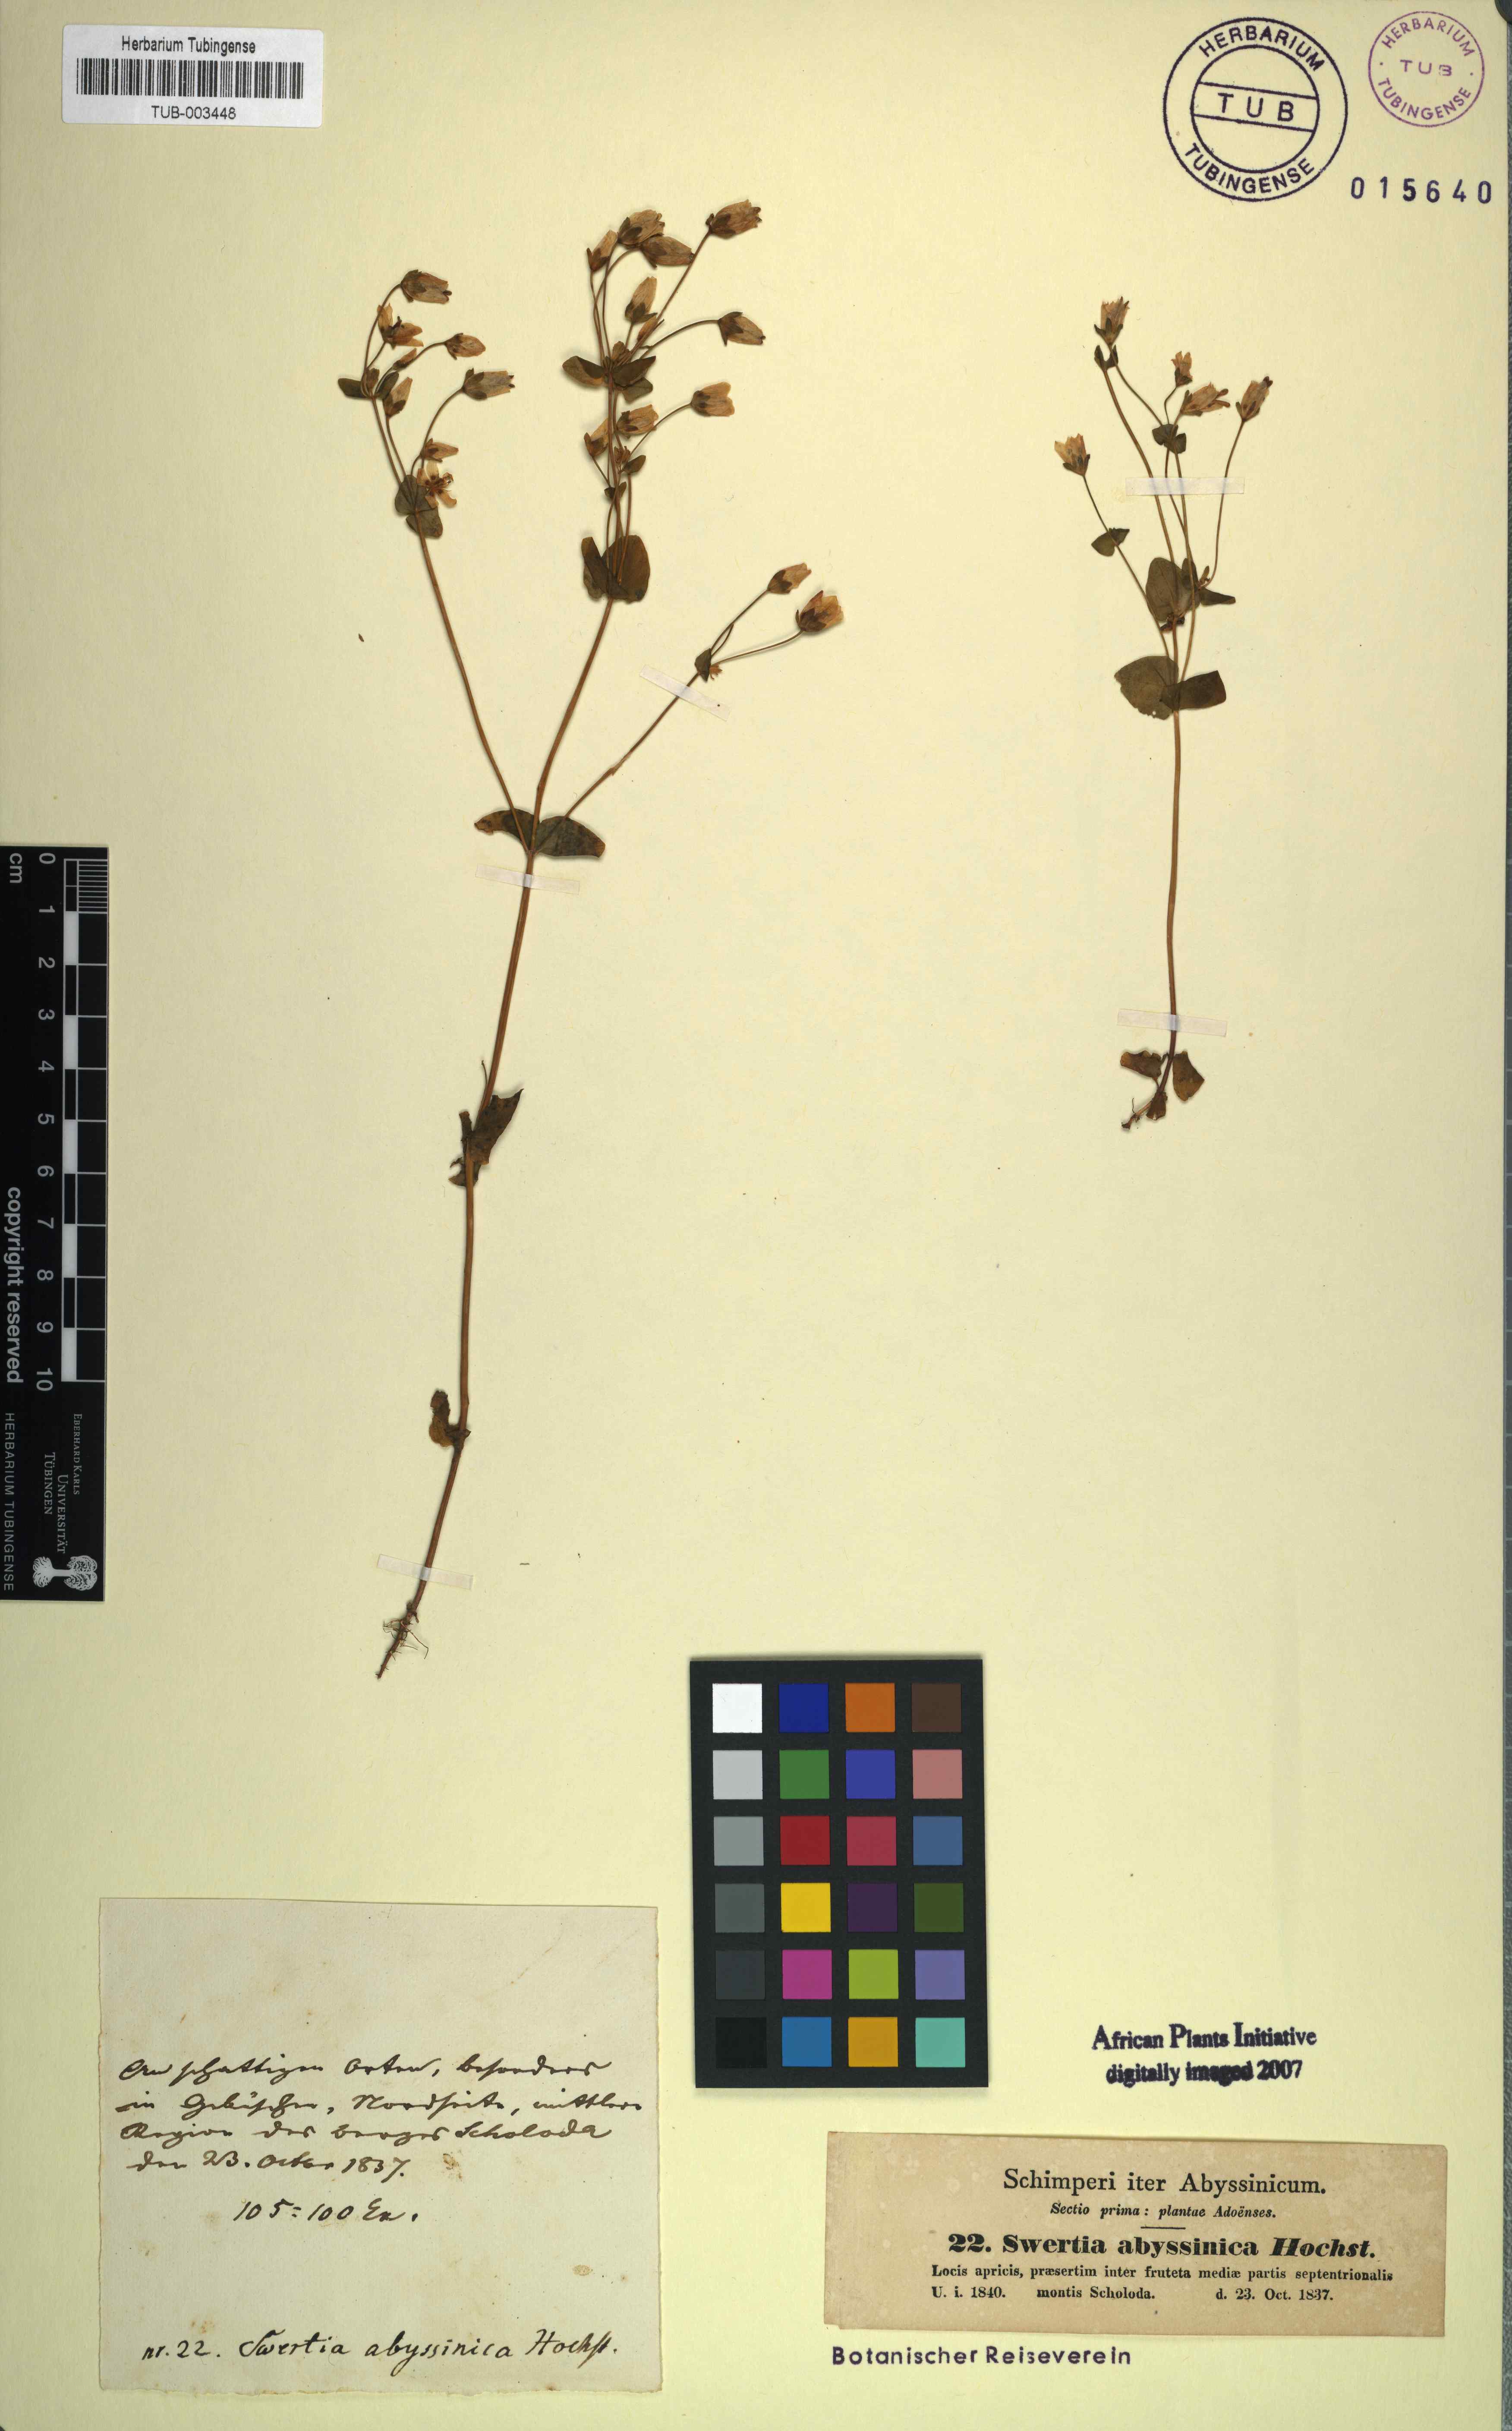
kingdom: Plantae
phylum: Tracheophyta
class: Magnoliopsida
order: Gentianales
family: Gentianaceae
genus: Swertia
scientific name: Swertia abyssinica
